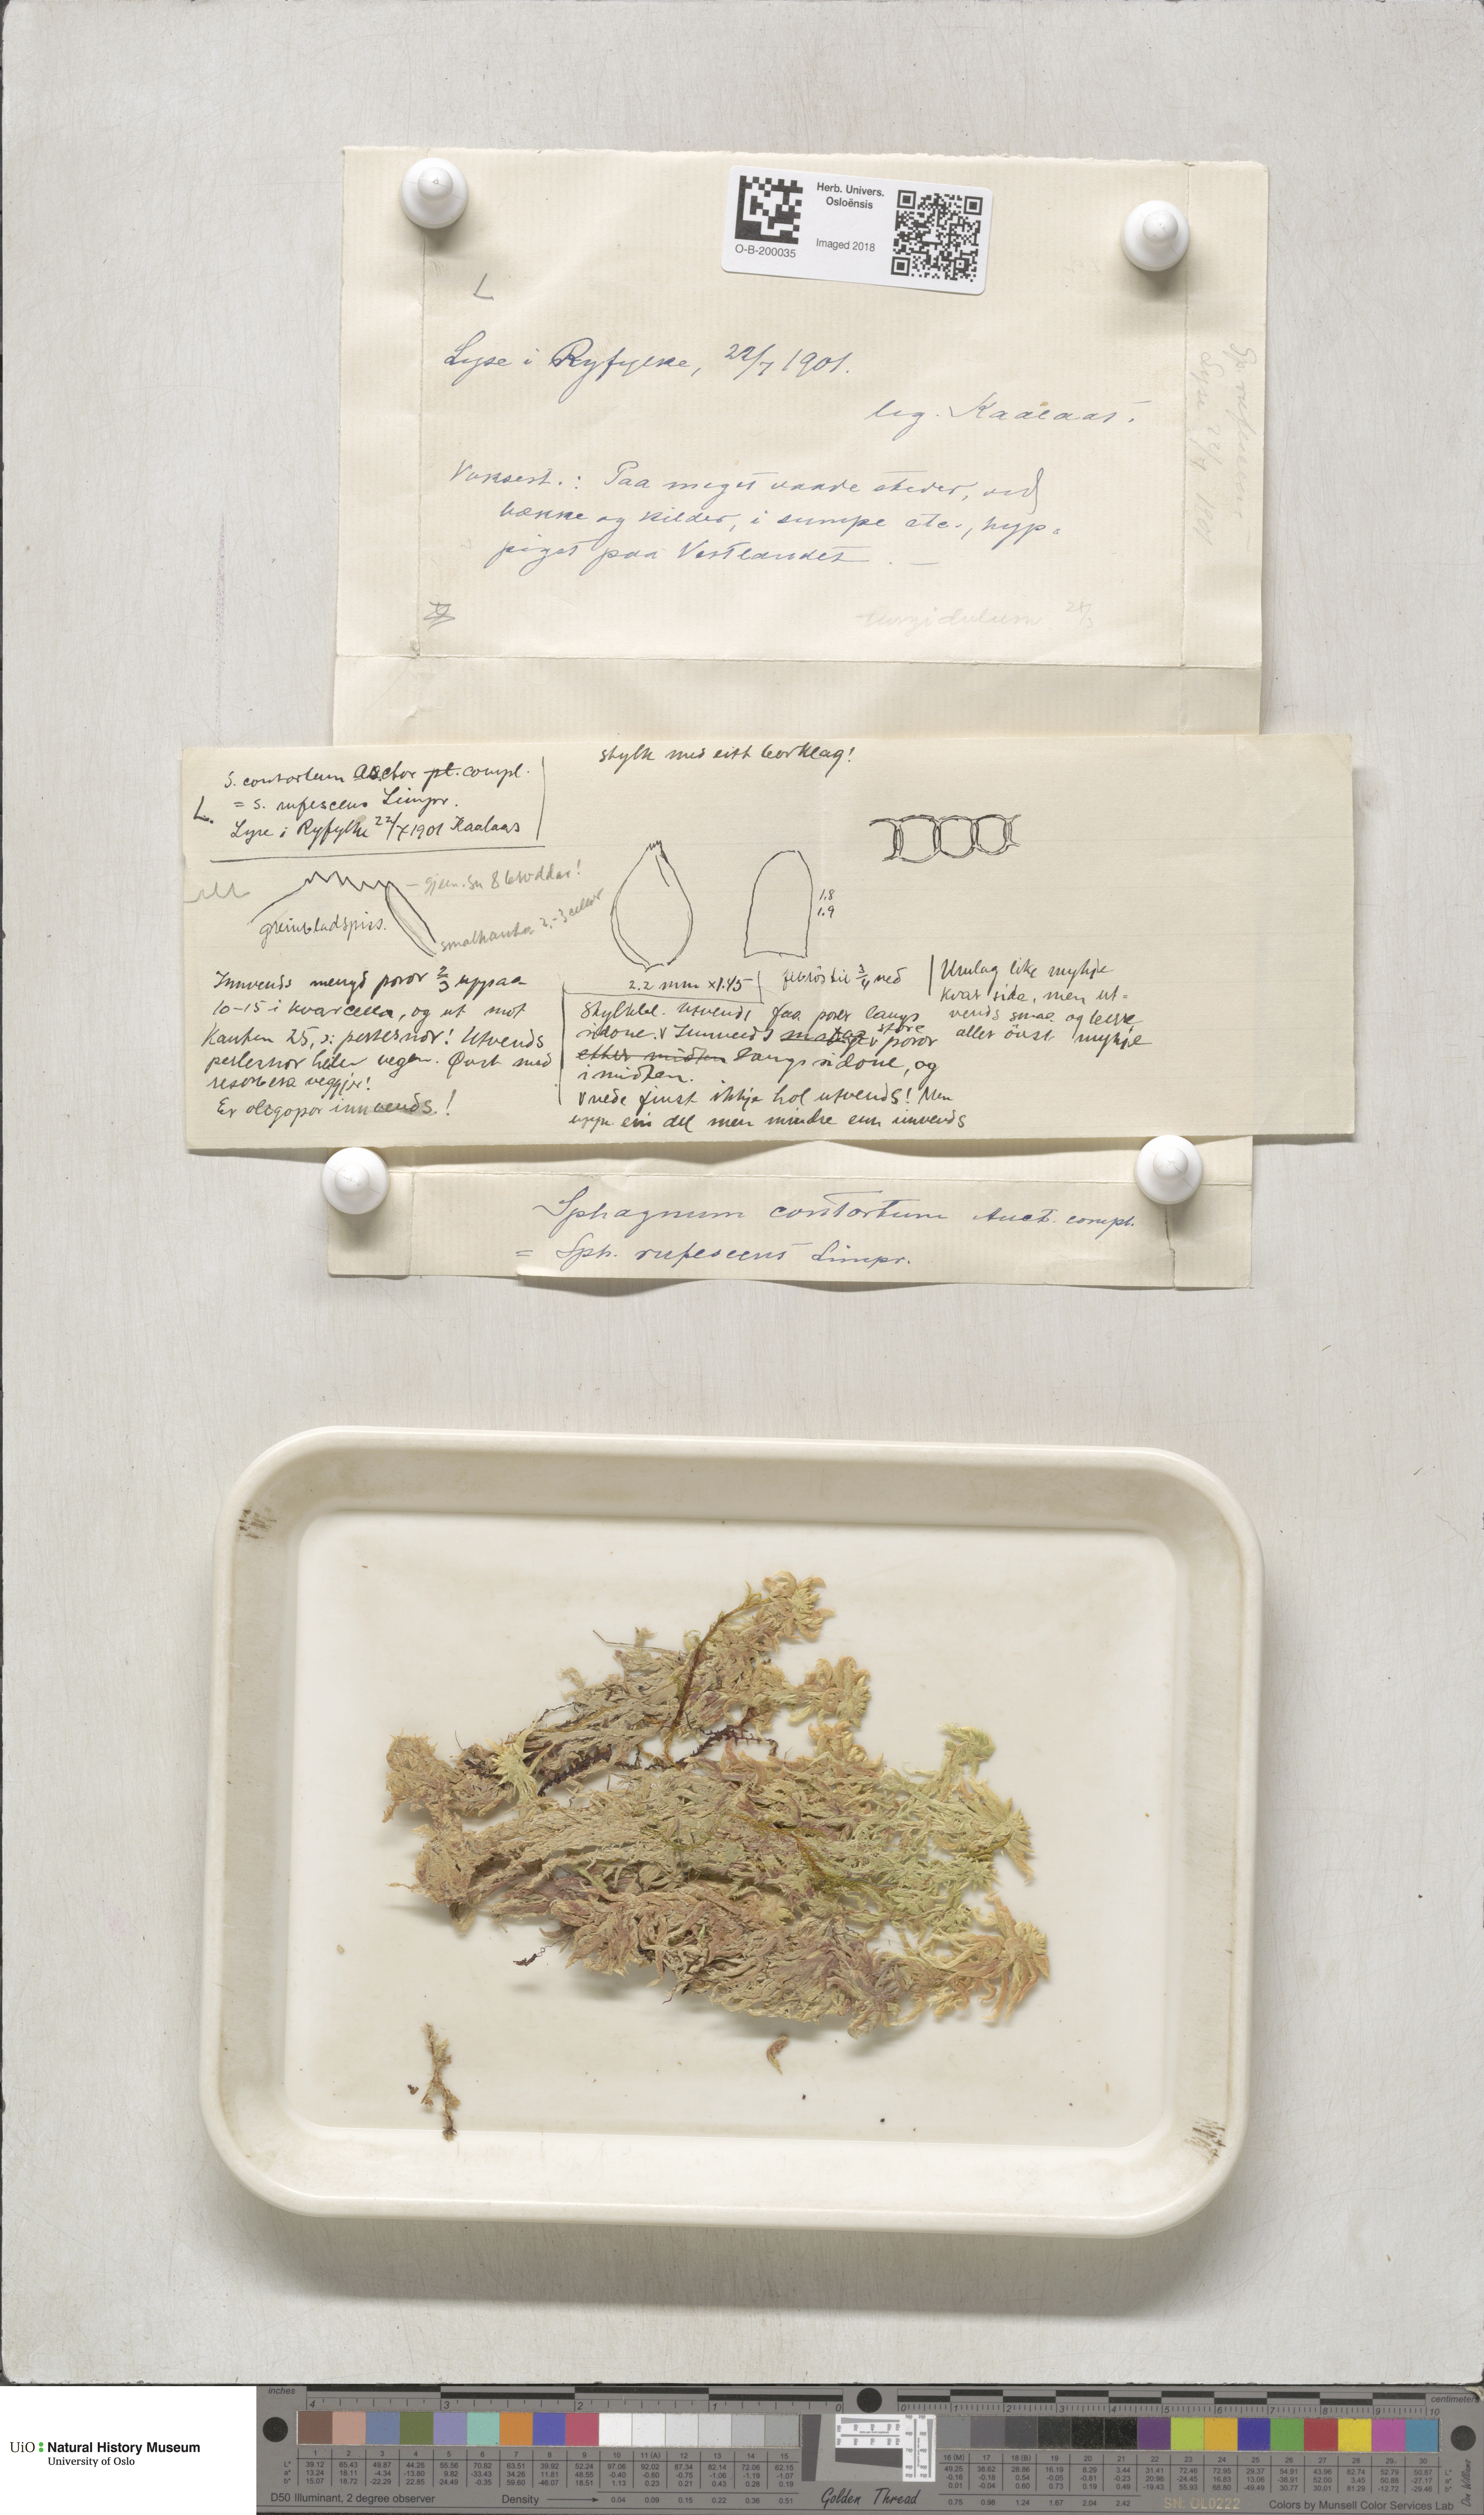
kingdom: Plantae
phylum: Bryophyta
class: Sphagnopsida
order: Sphagnales
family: Sphagnaceae
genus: Sphagnum
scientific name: Sphagnum denticulatum
